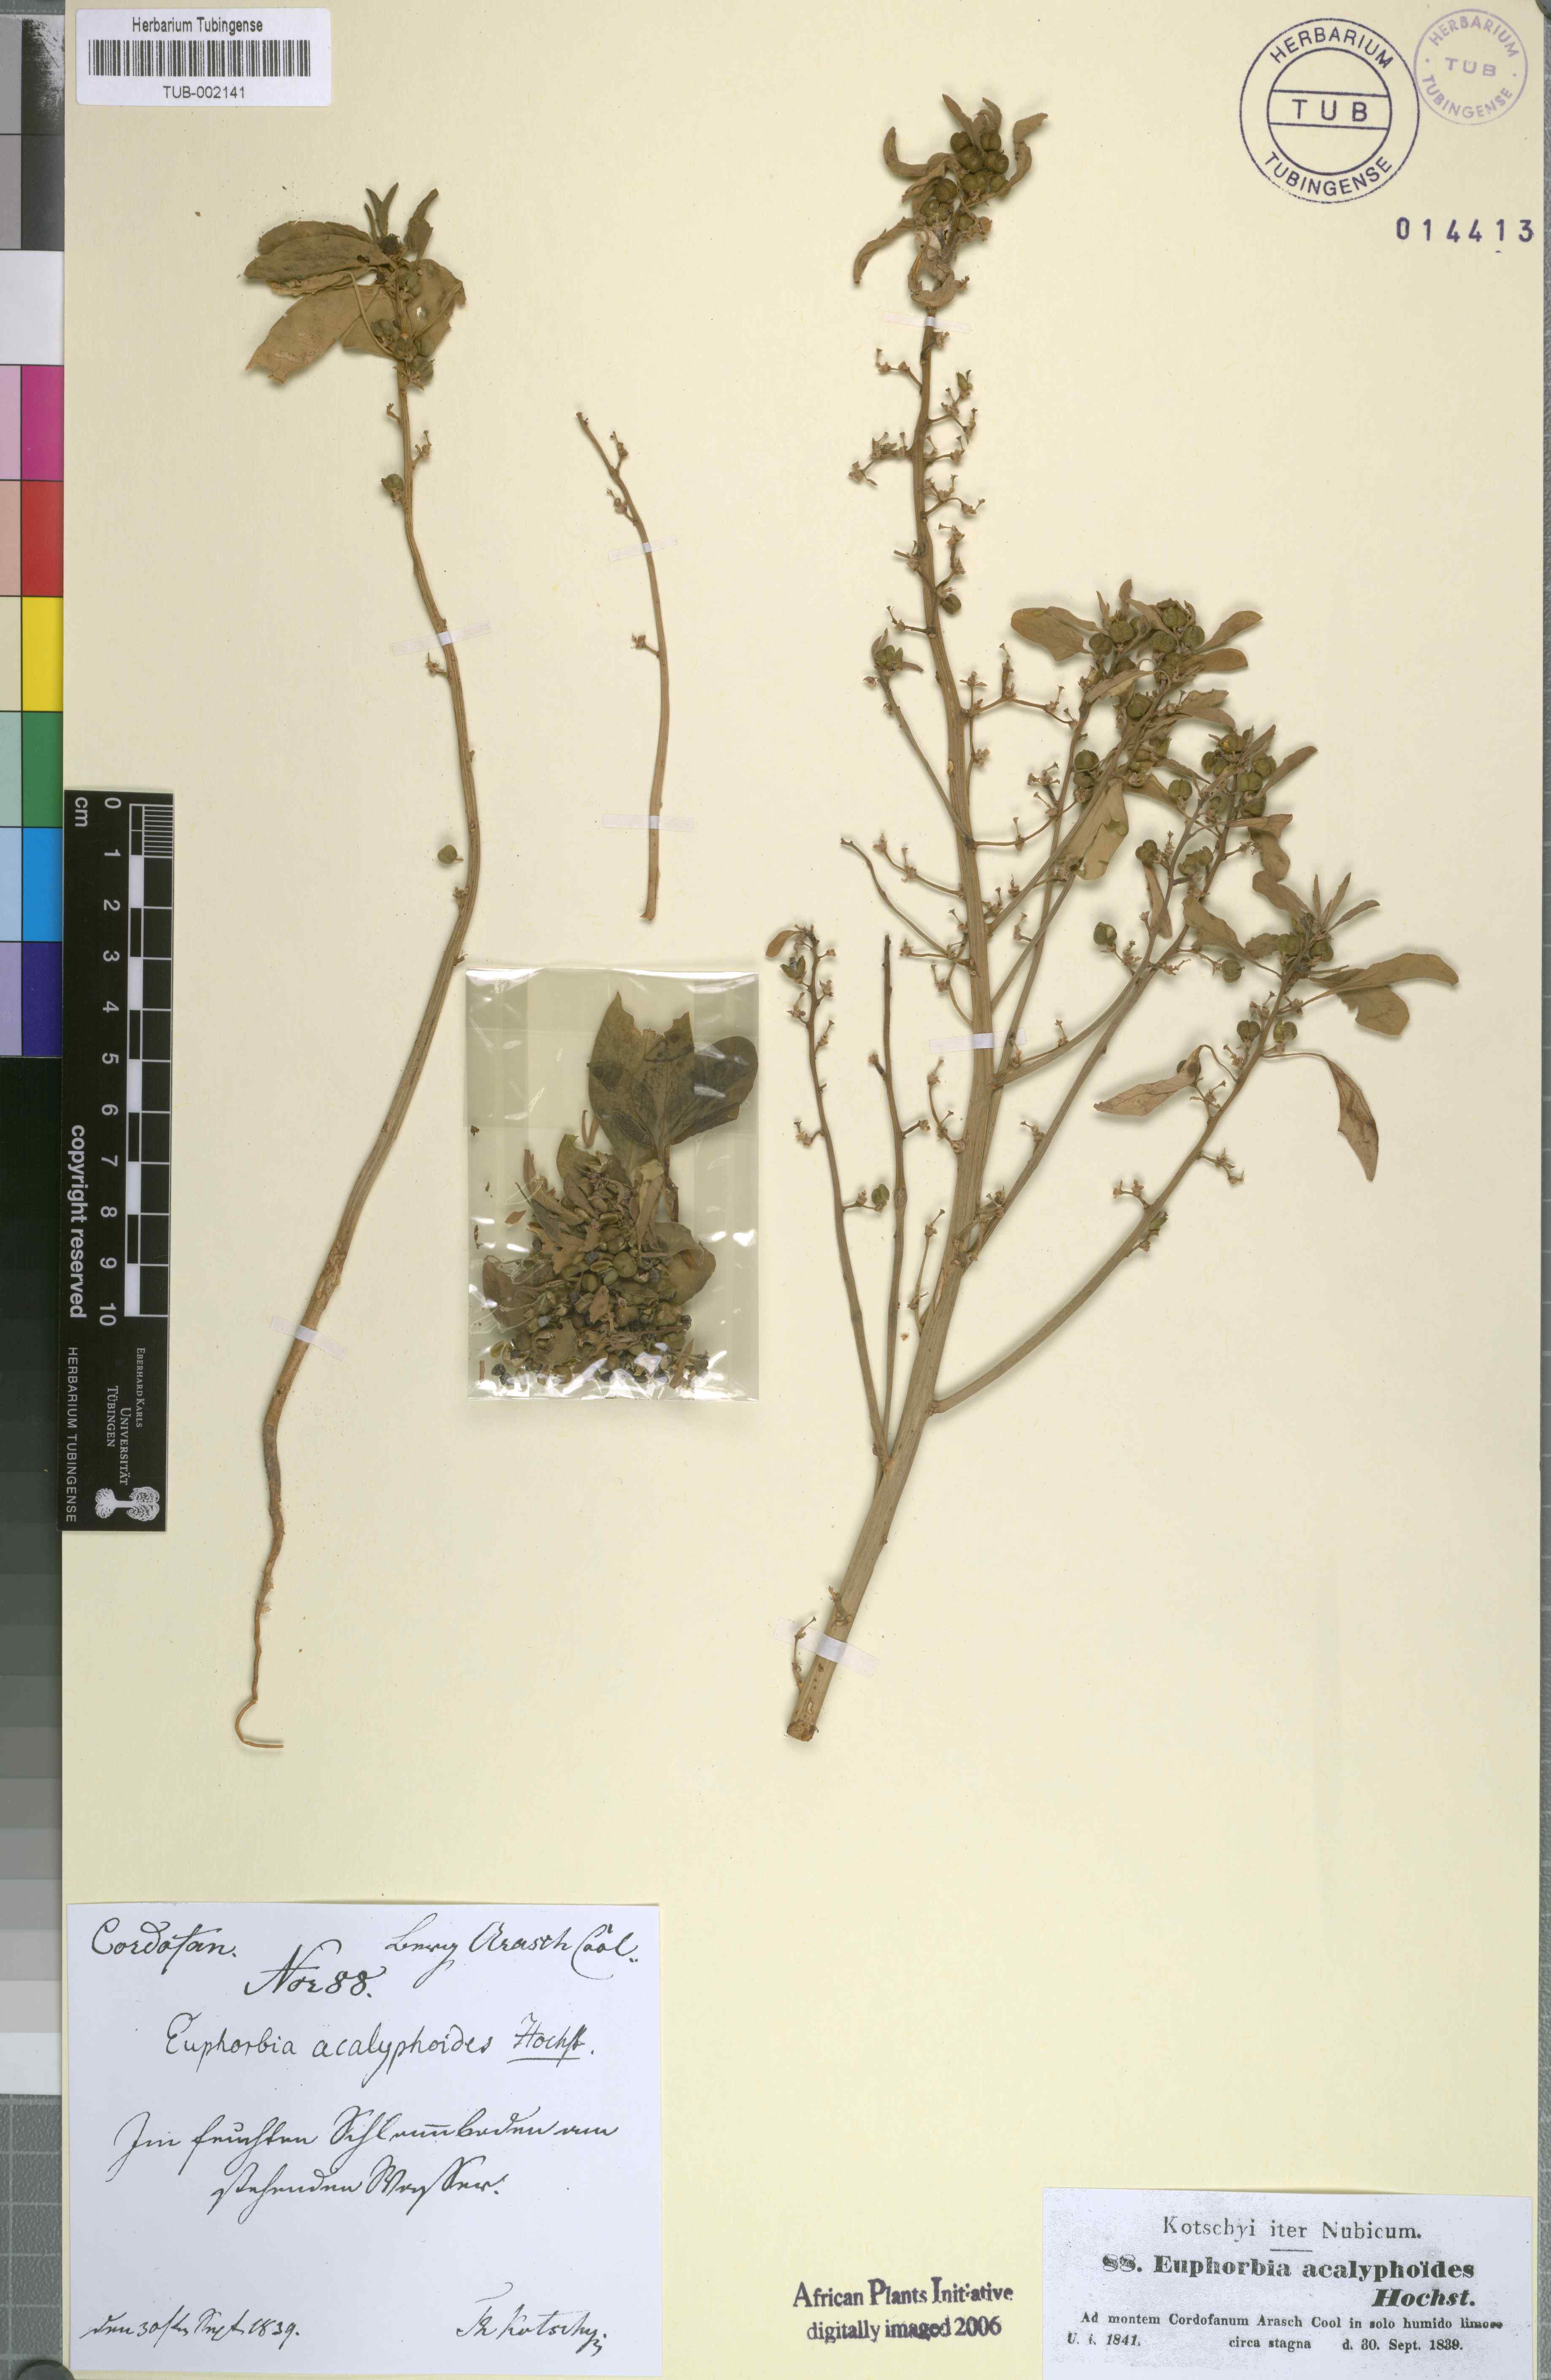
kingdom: Plantae
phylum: Tracheophyta
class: Magnoliopsida
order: Malpighiales
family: Euphorbiaceae
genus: Euphorbia
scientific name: Euphorbia acalyphoides
